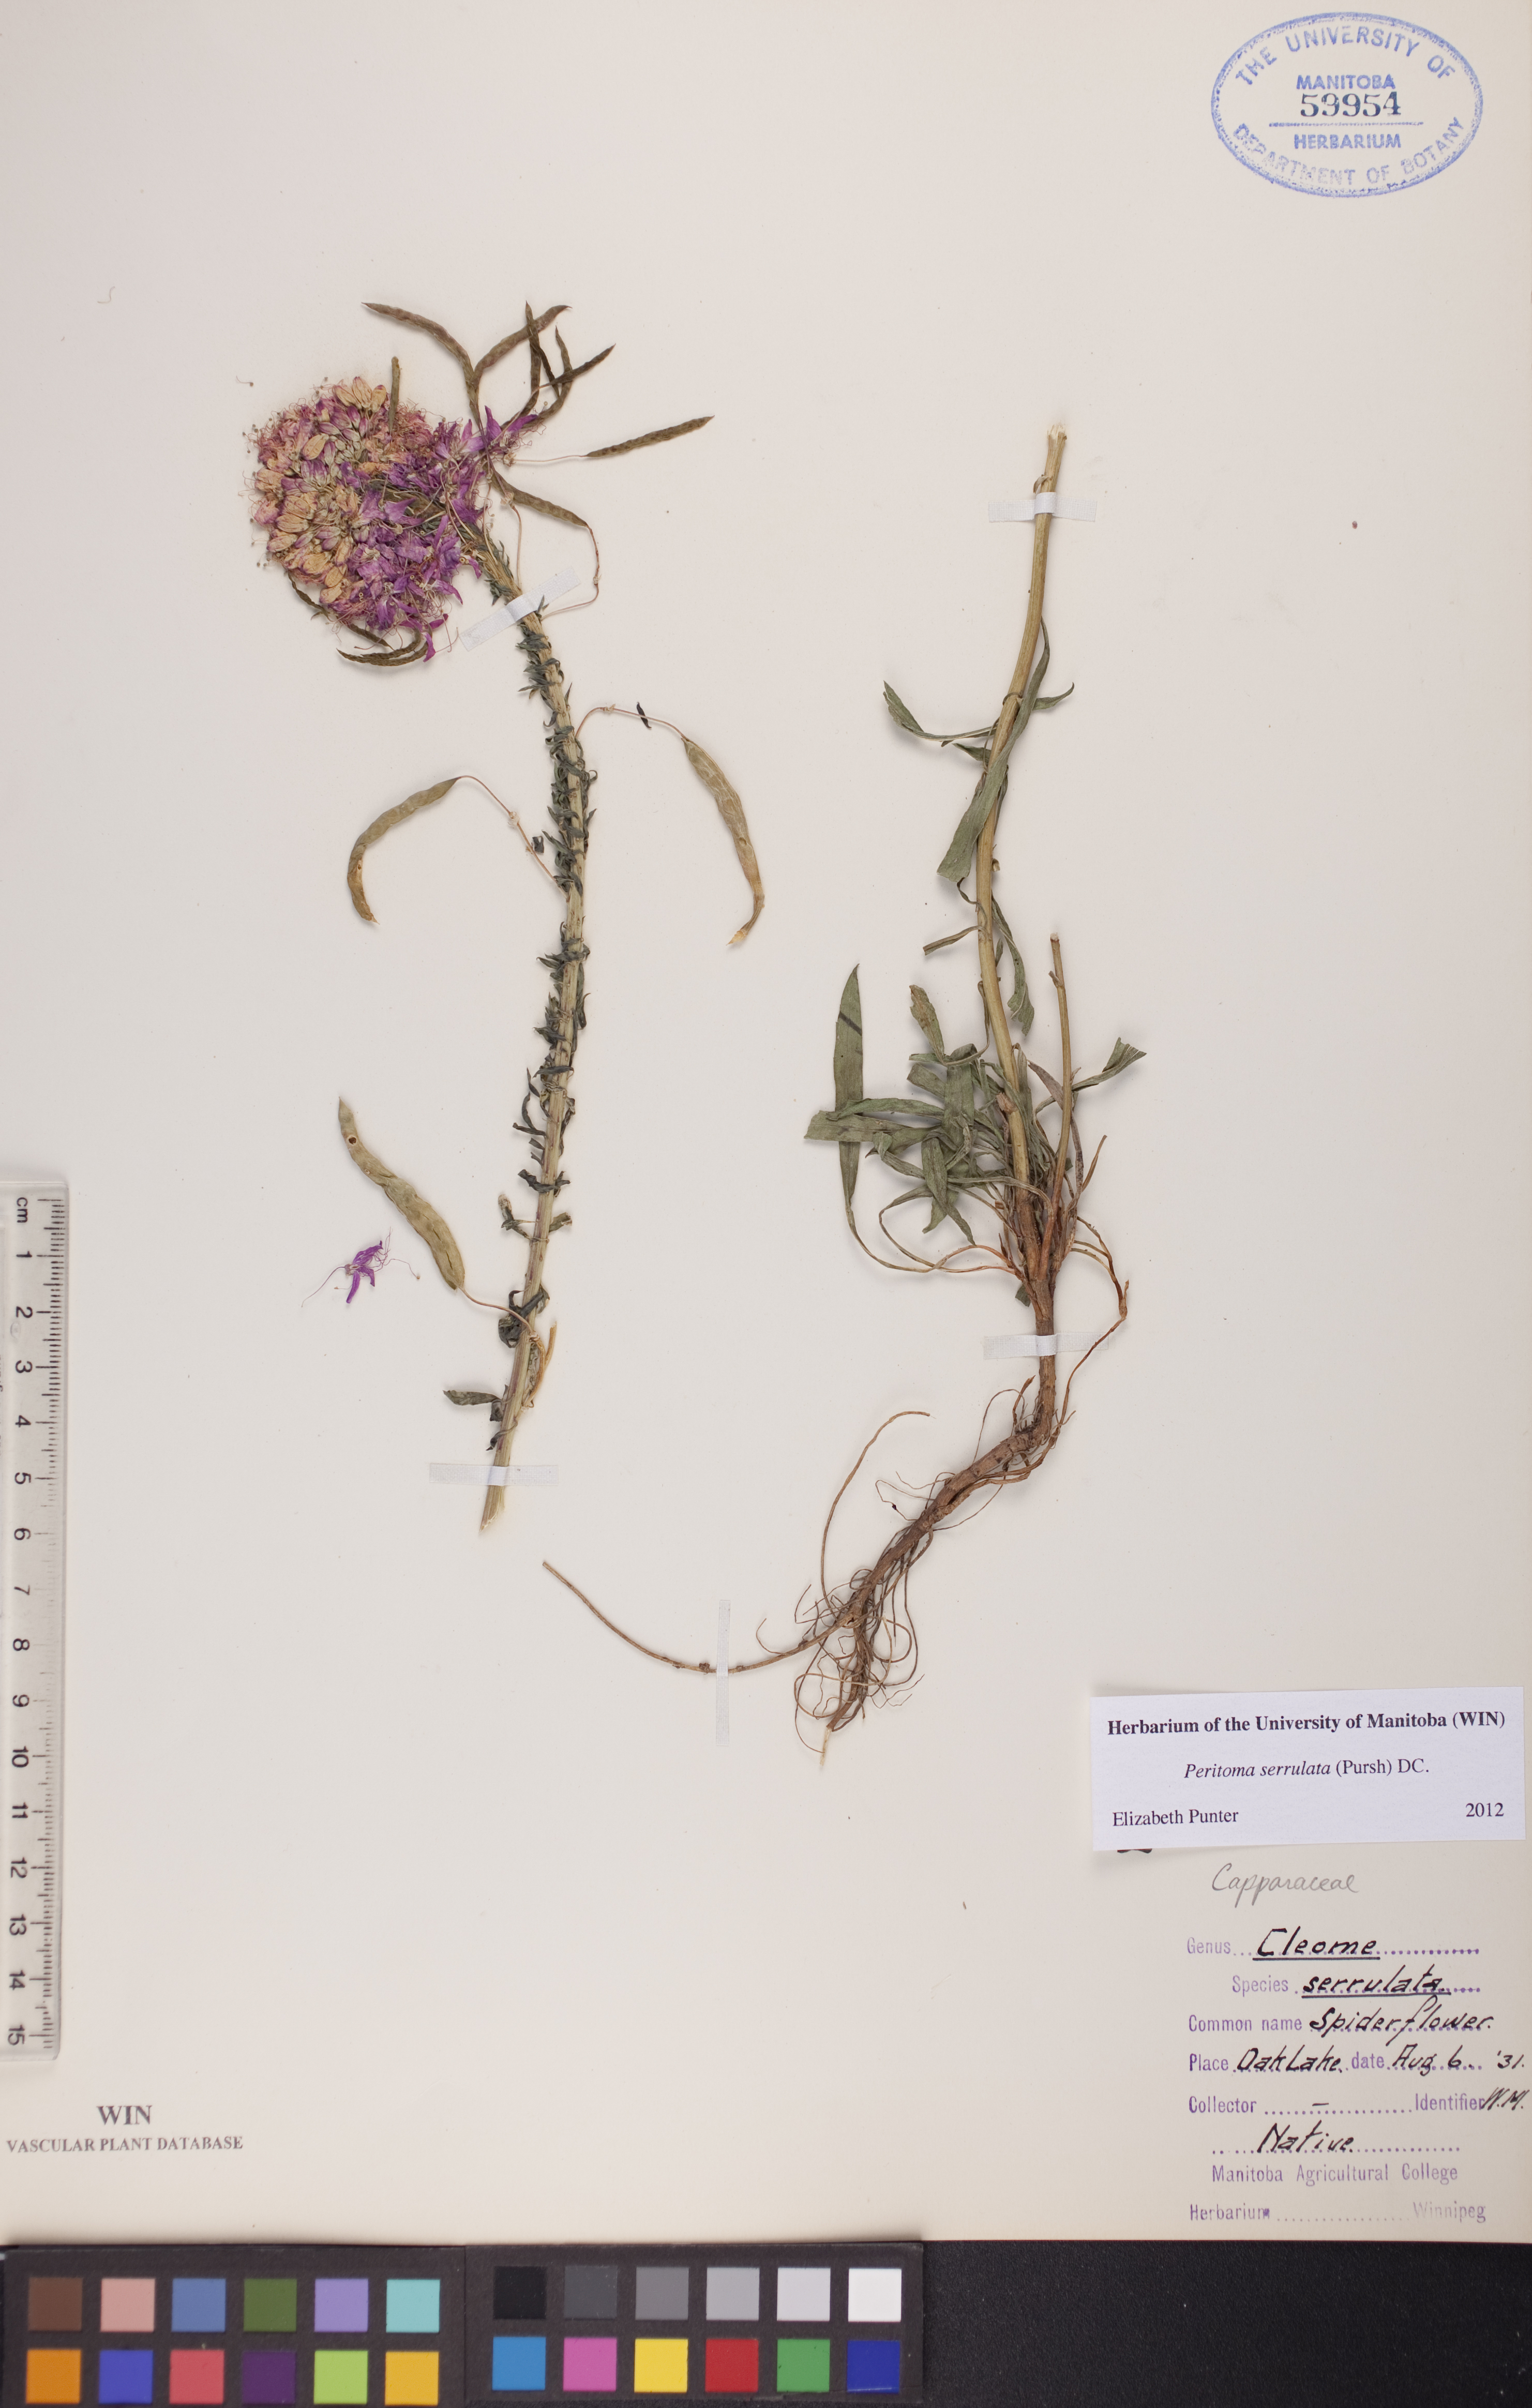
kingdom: Plantae
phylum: Tracheophyta
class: Magnoliopsida
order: Brassicales
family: Cleomaceae
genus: Cleomella
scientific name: Cleomella serrulata
